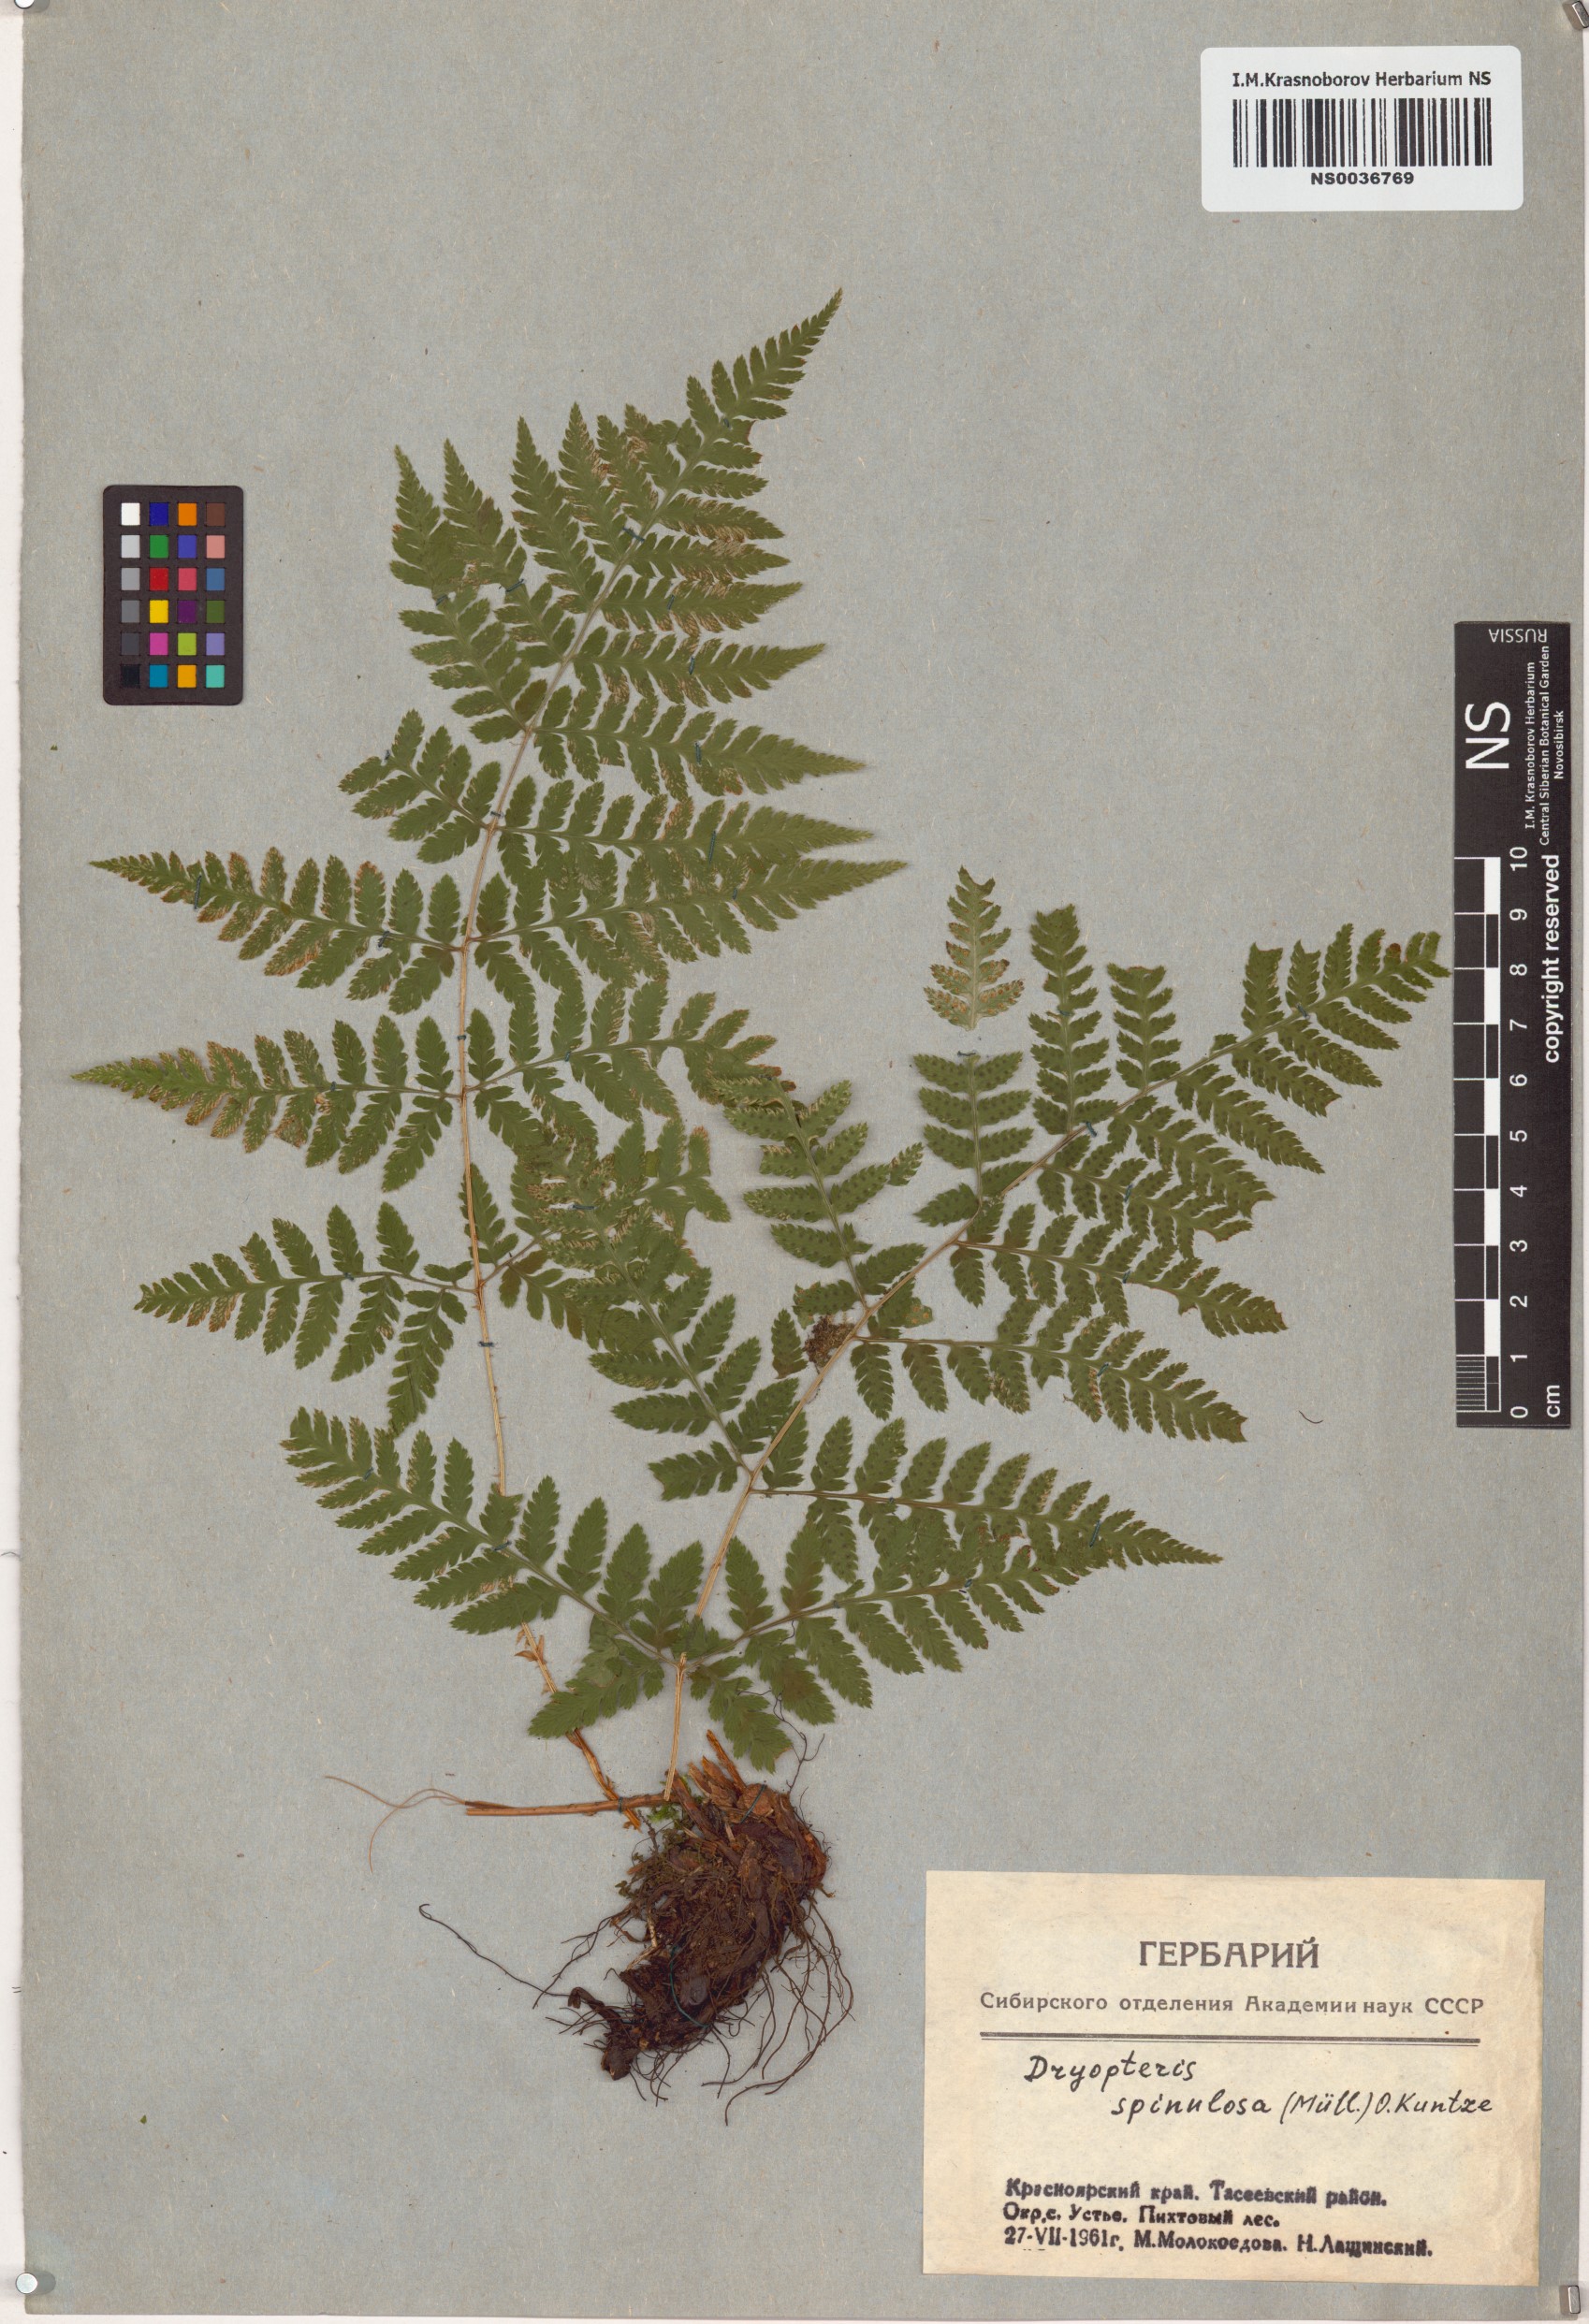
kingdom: Plantae
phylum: Tracheophyta
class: Polypodiopsida
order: Polypodiales
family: Dryopteridaceae
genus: Dryopteris
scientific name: Dryopteris carthusiana
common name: Narrow buckler-fern
